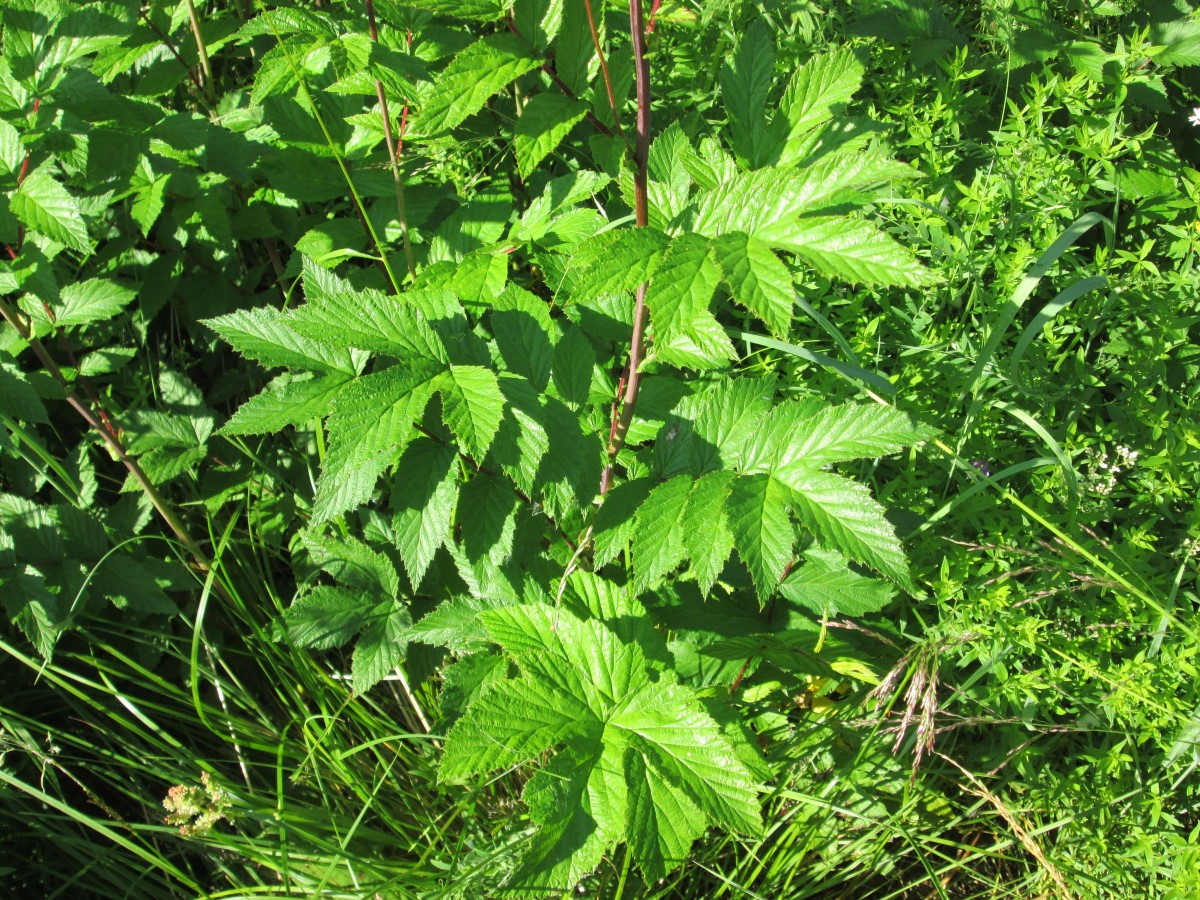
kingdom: Plantae
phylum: Tracheophyta
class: Magnoliopsida
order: Rosales
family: Rosaceae
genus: Filipendula
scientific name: Filipendula ulmaria
